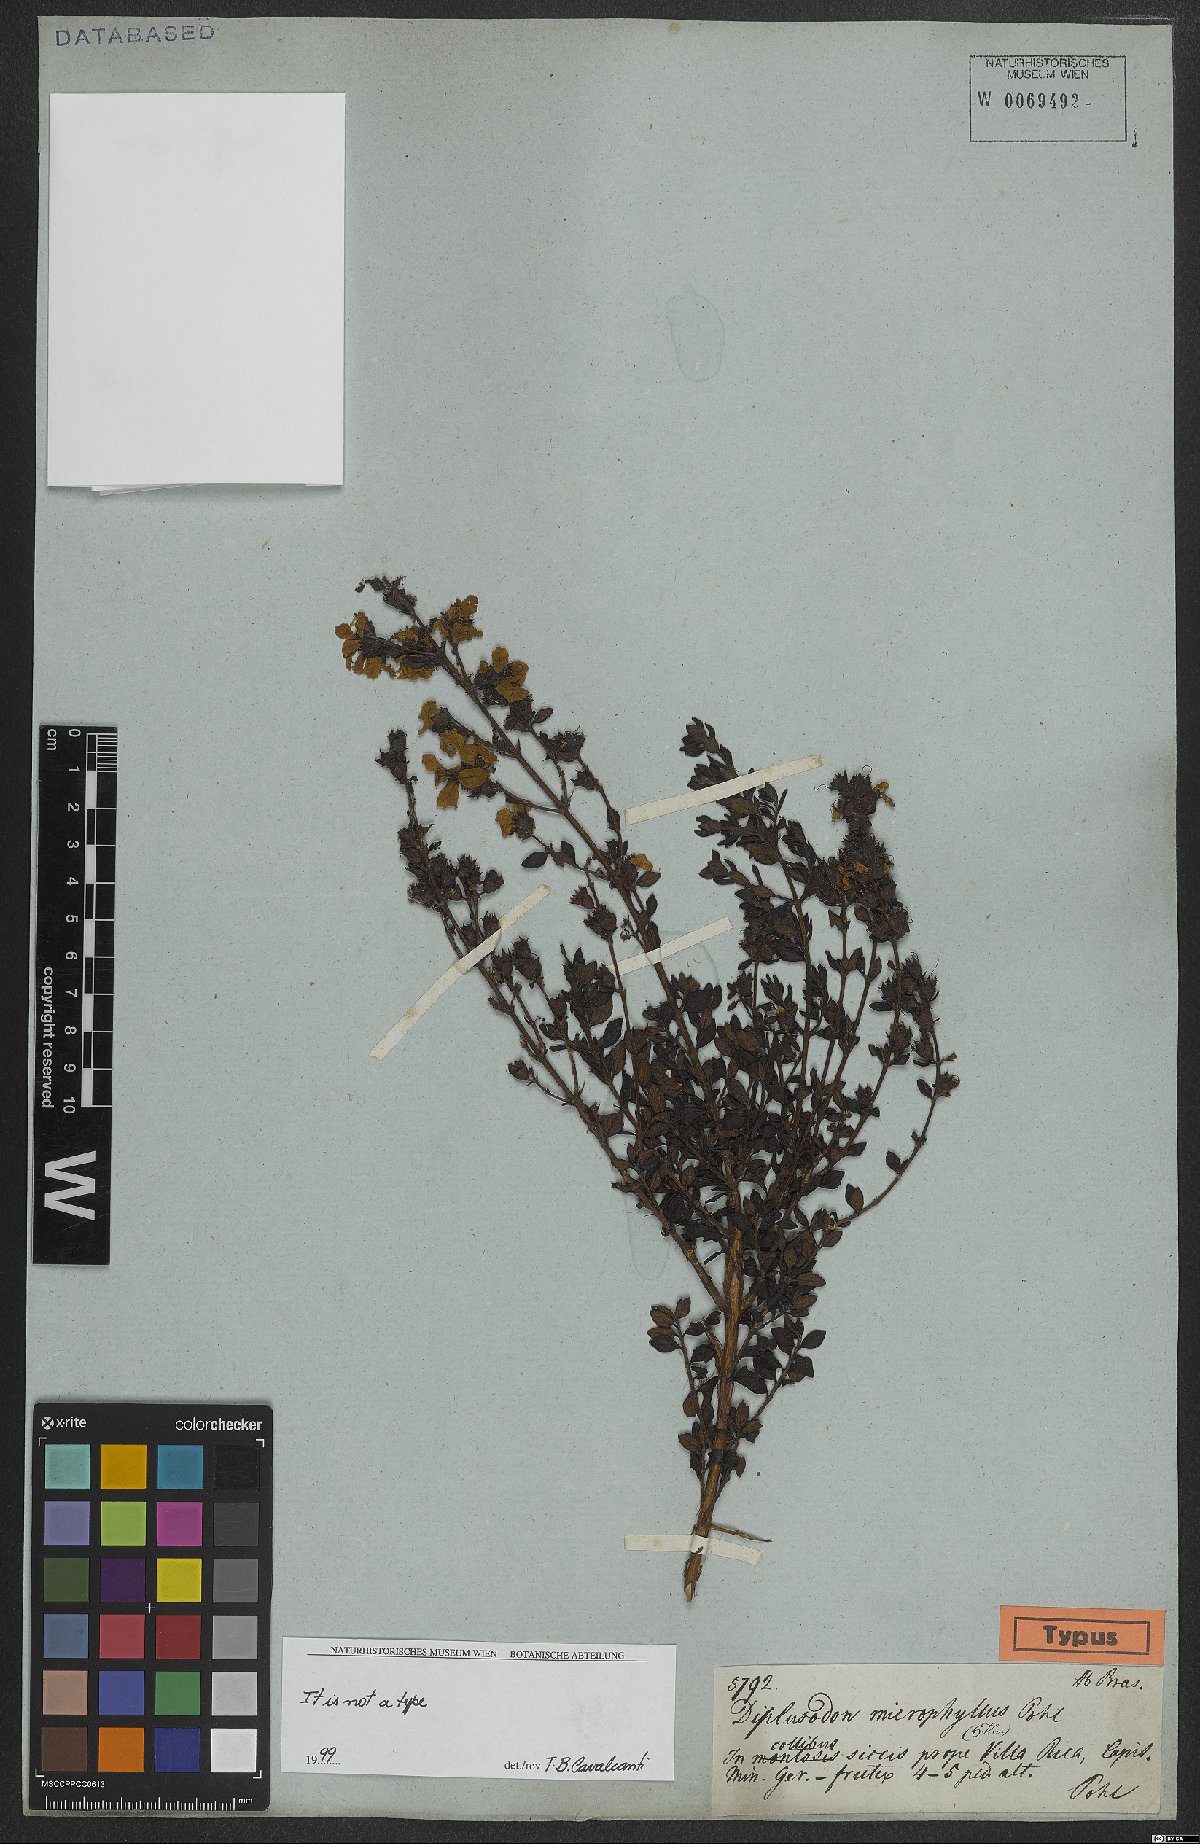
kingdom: Plantae
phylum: Tracheophyta
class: Magnoliopsida
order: Myrtales
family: Lythraceae
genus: Diplusodon
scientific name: Diplusodon microphyllus
